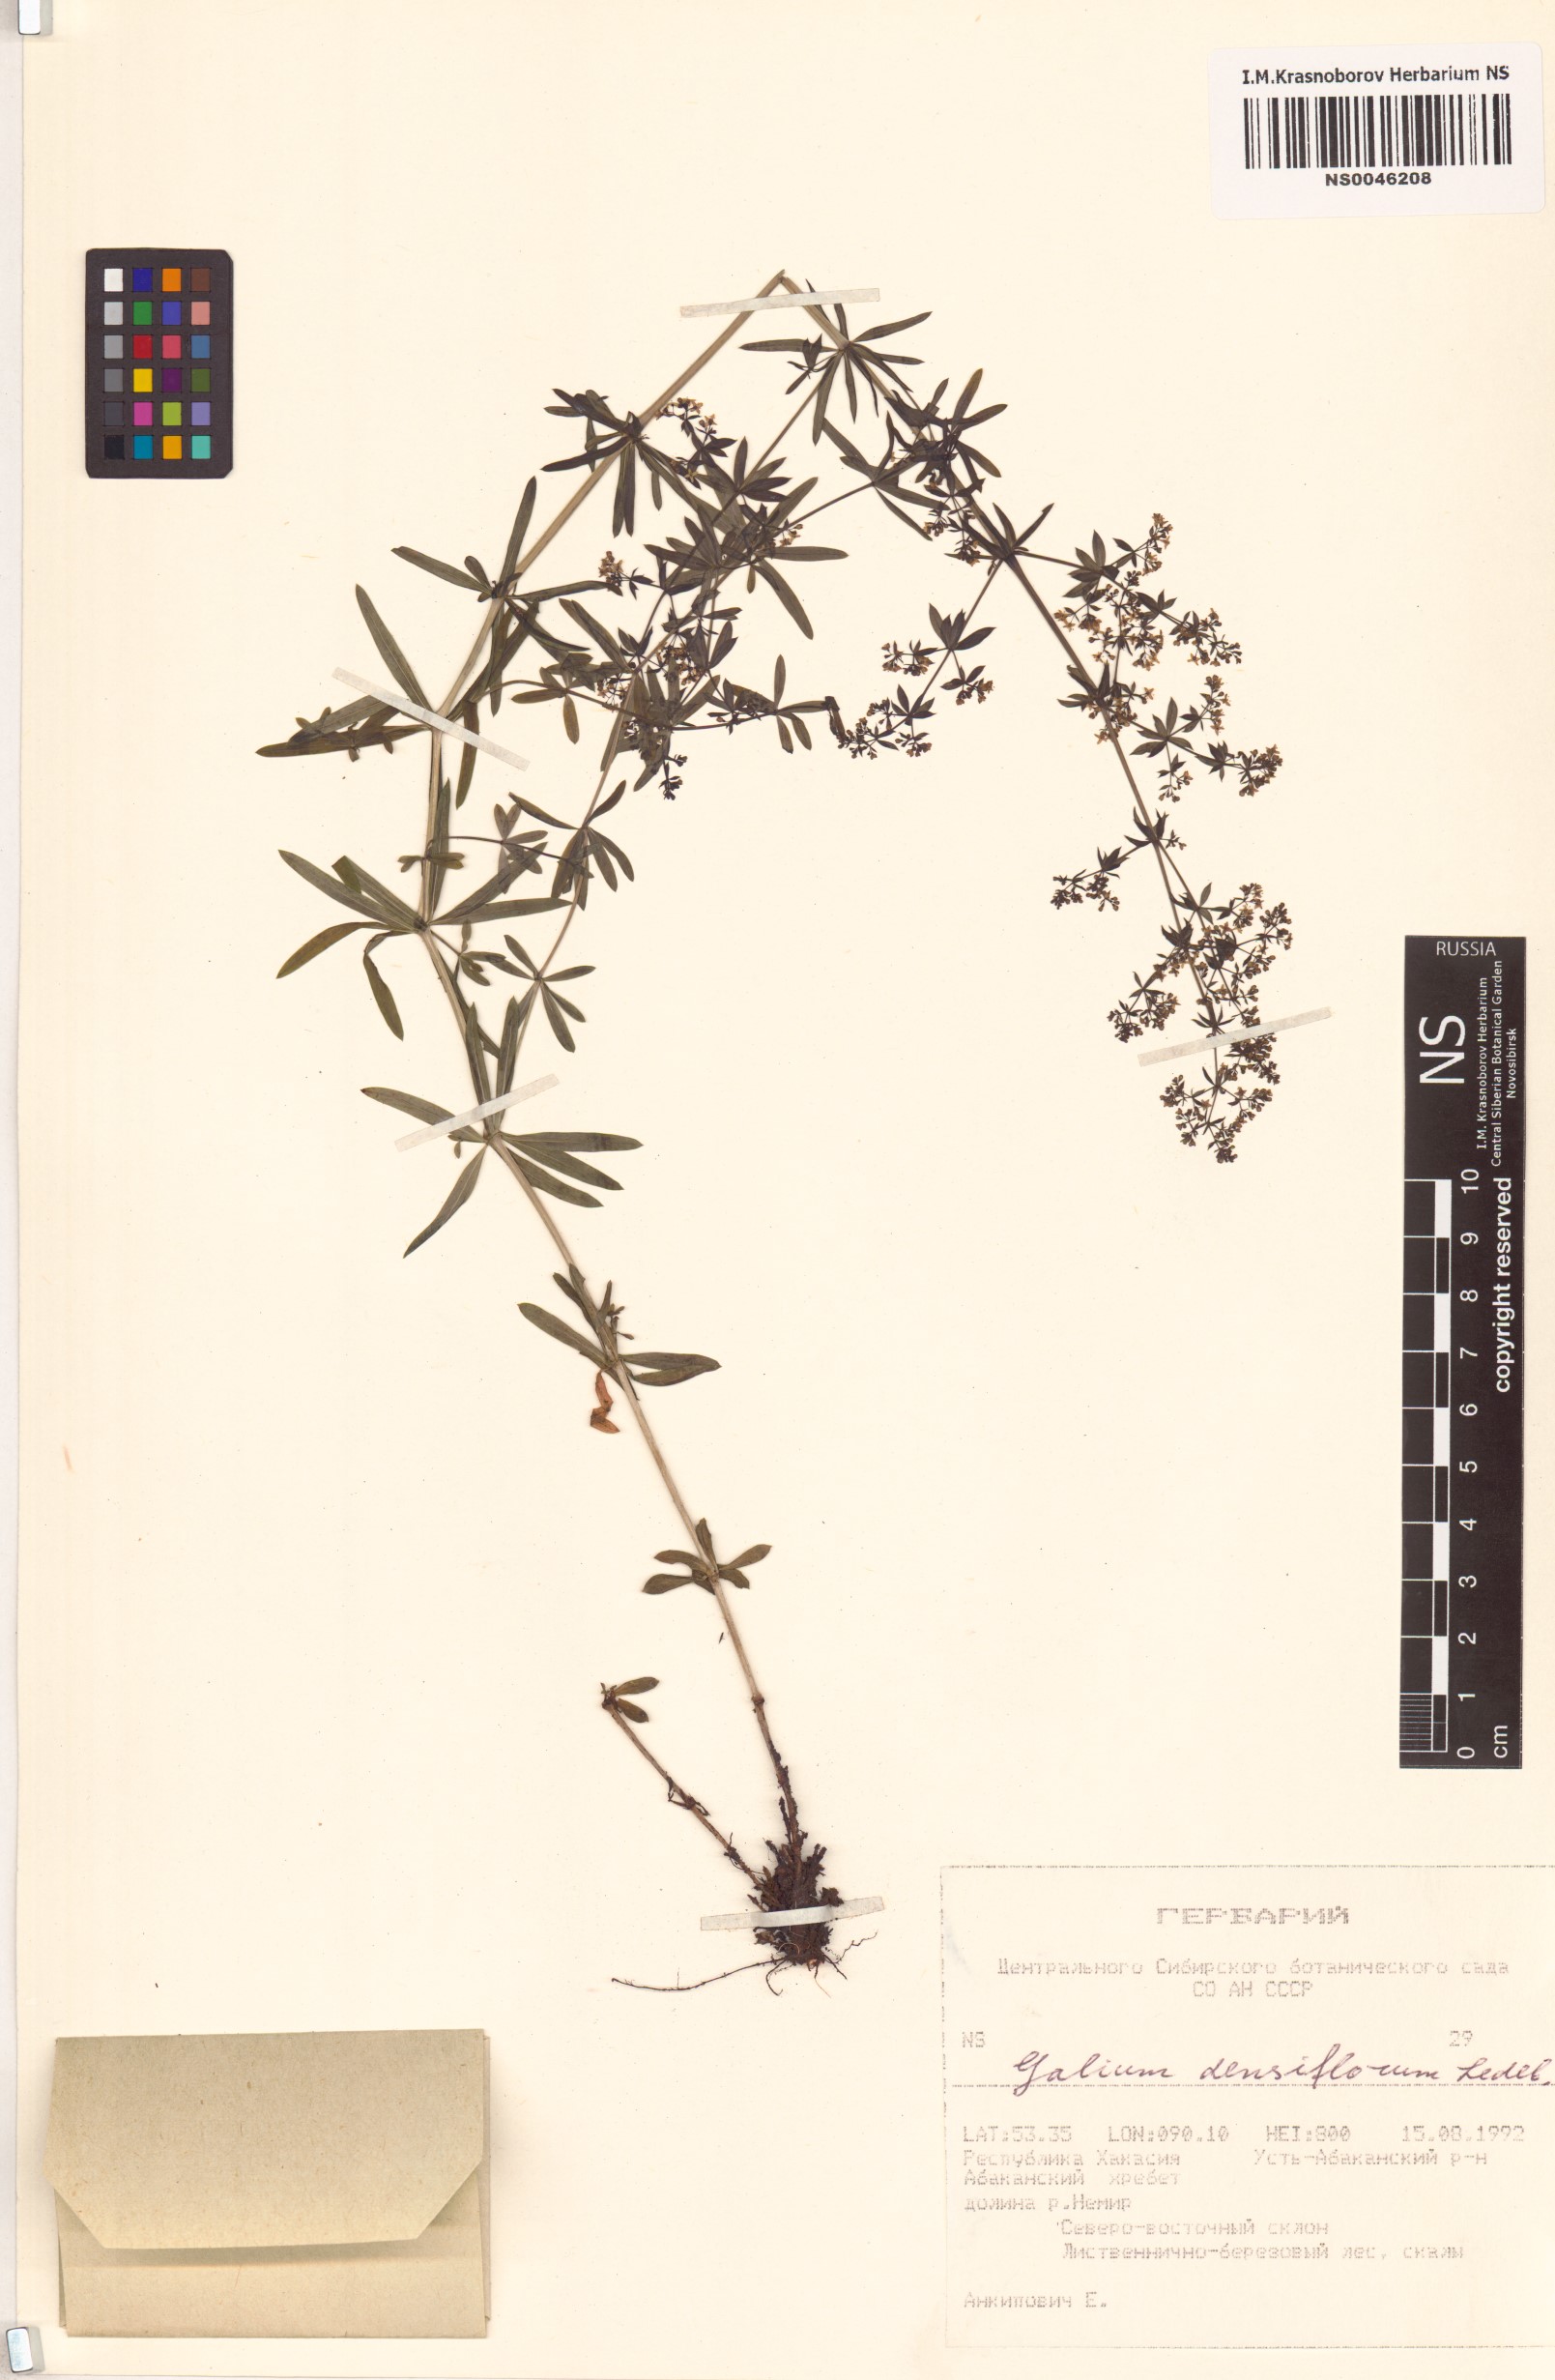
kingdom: Plantae
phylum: Tracheophyta
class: Magnoliopsida
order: Gentianales
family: Rubiaceae
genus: Galium
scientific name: Galium densiflorum
